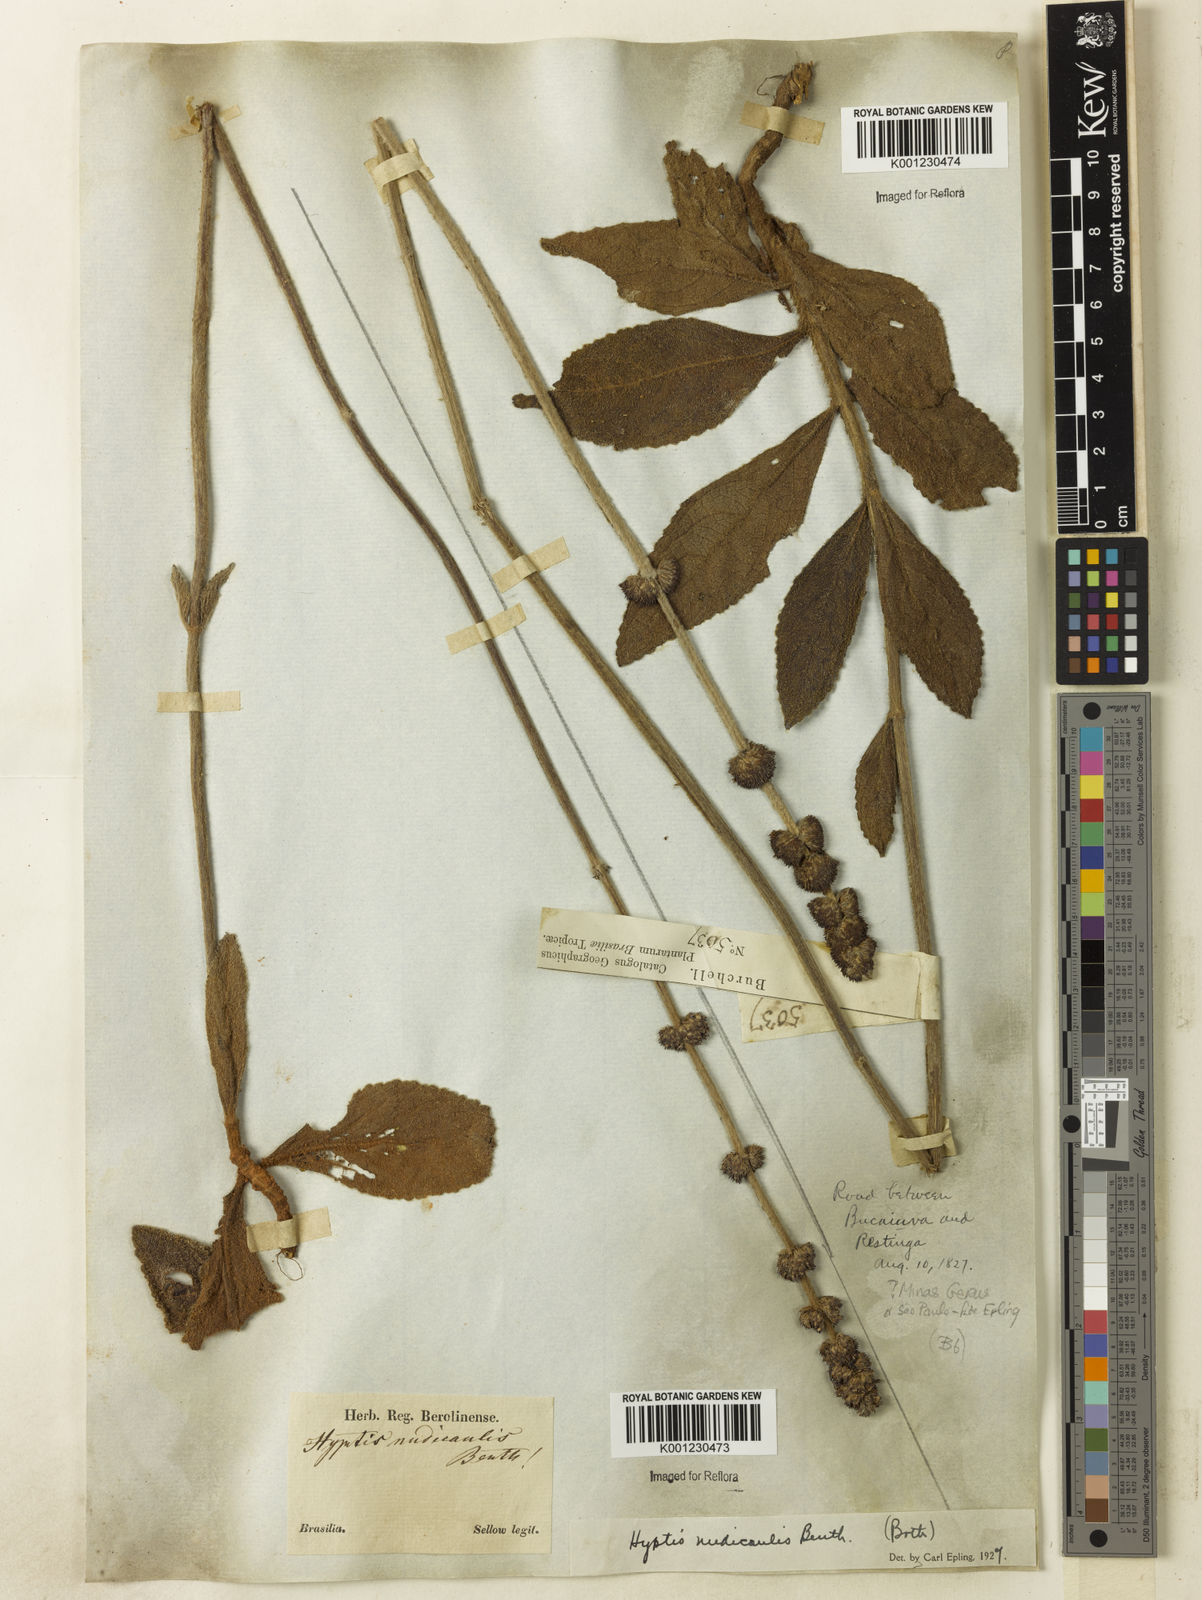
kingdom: Plantae
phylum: Tracheophyta
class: Magnoliopsida
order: Lamiales
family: Lamiaceae
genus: Hyptis
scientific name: Hyptis nudicaulis
